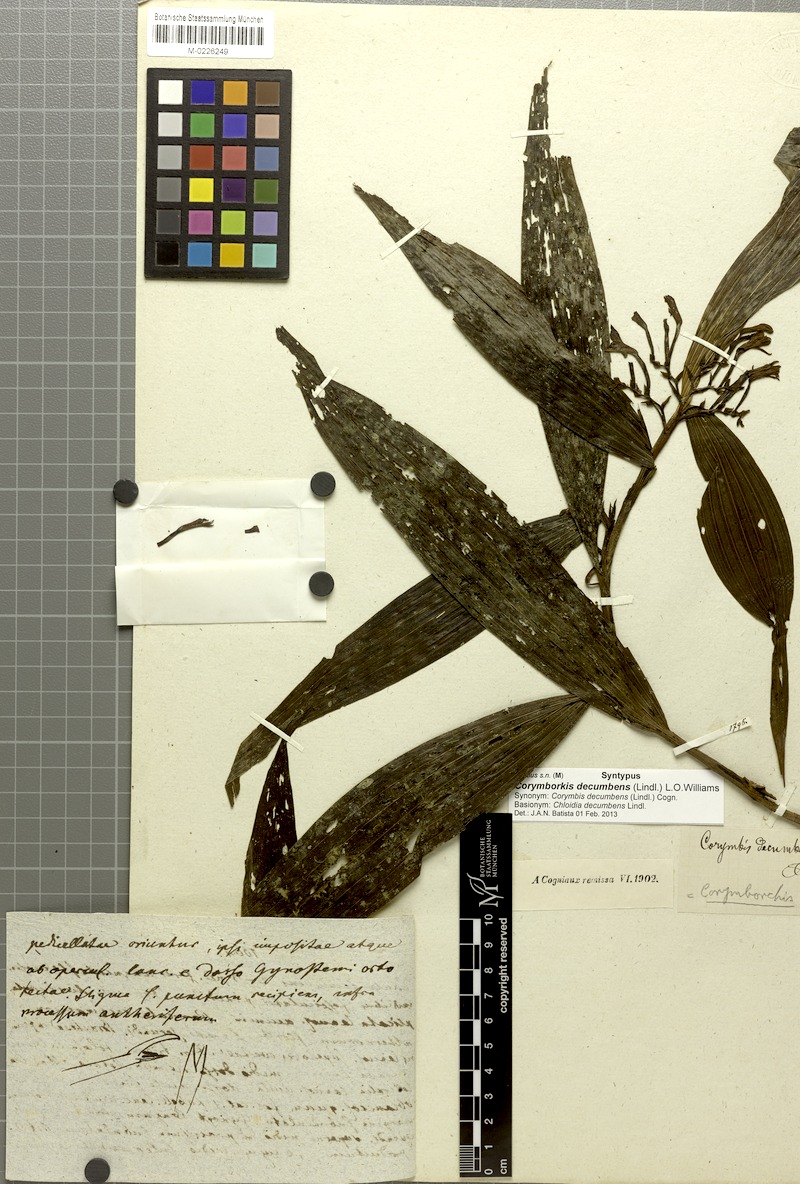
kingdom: Plantae
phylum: Tracheophyta
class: Liliopsida
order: Asparagales
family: Orchidaceae
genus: Corymborkis
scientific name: Corymborkis flava
